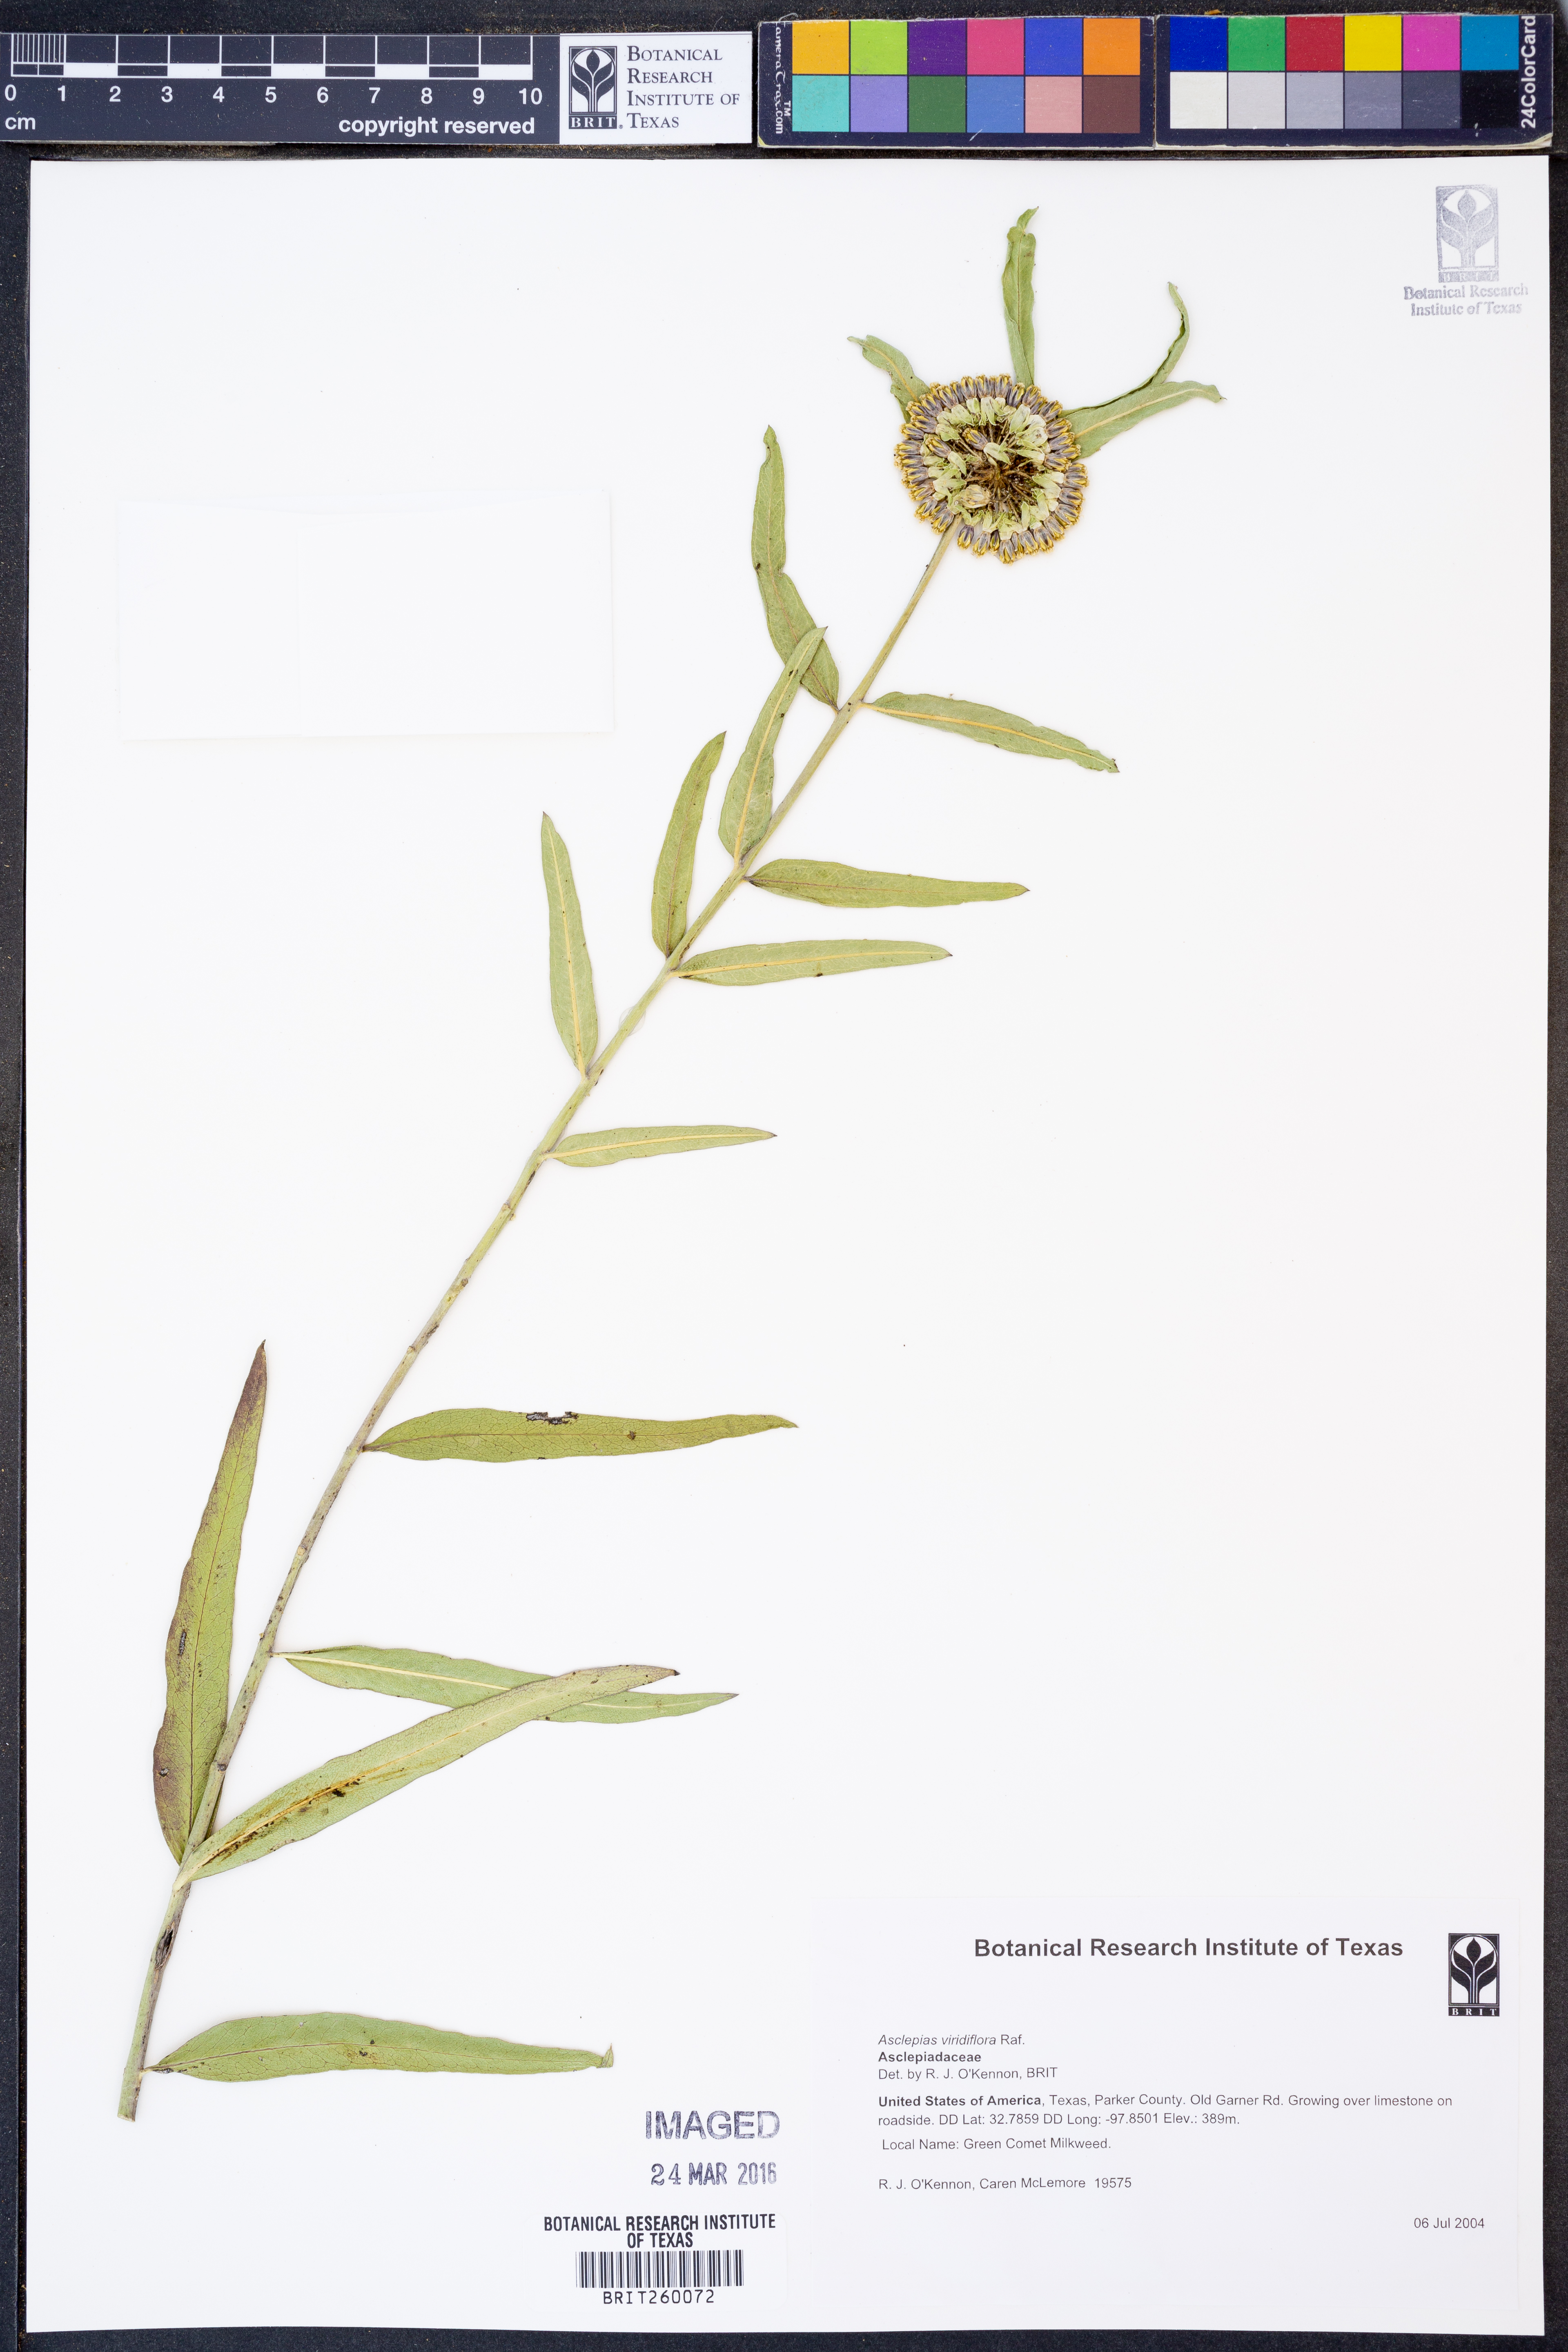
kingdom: Plantae
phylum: Tracheophyta
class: Magnoliopsida
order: Gentianales
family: Apocynaceae
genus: Asclepias
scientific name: Asclepias viridiflora
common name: Green comet milkweed
